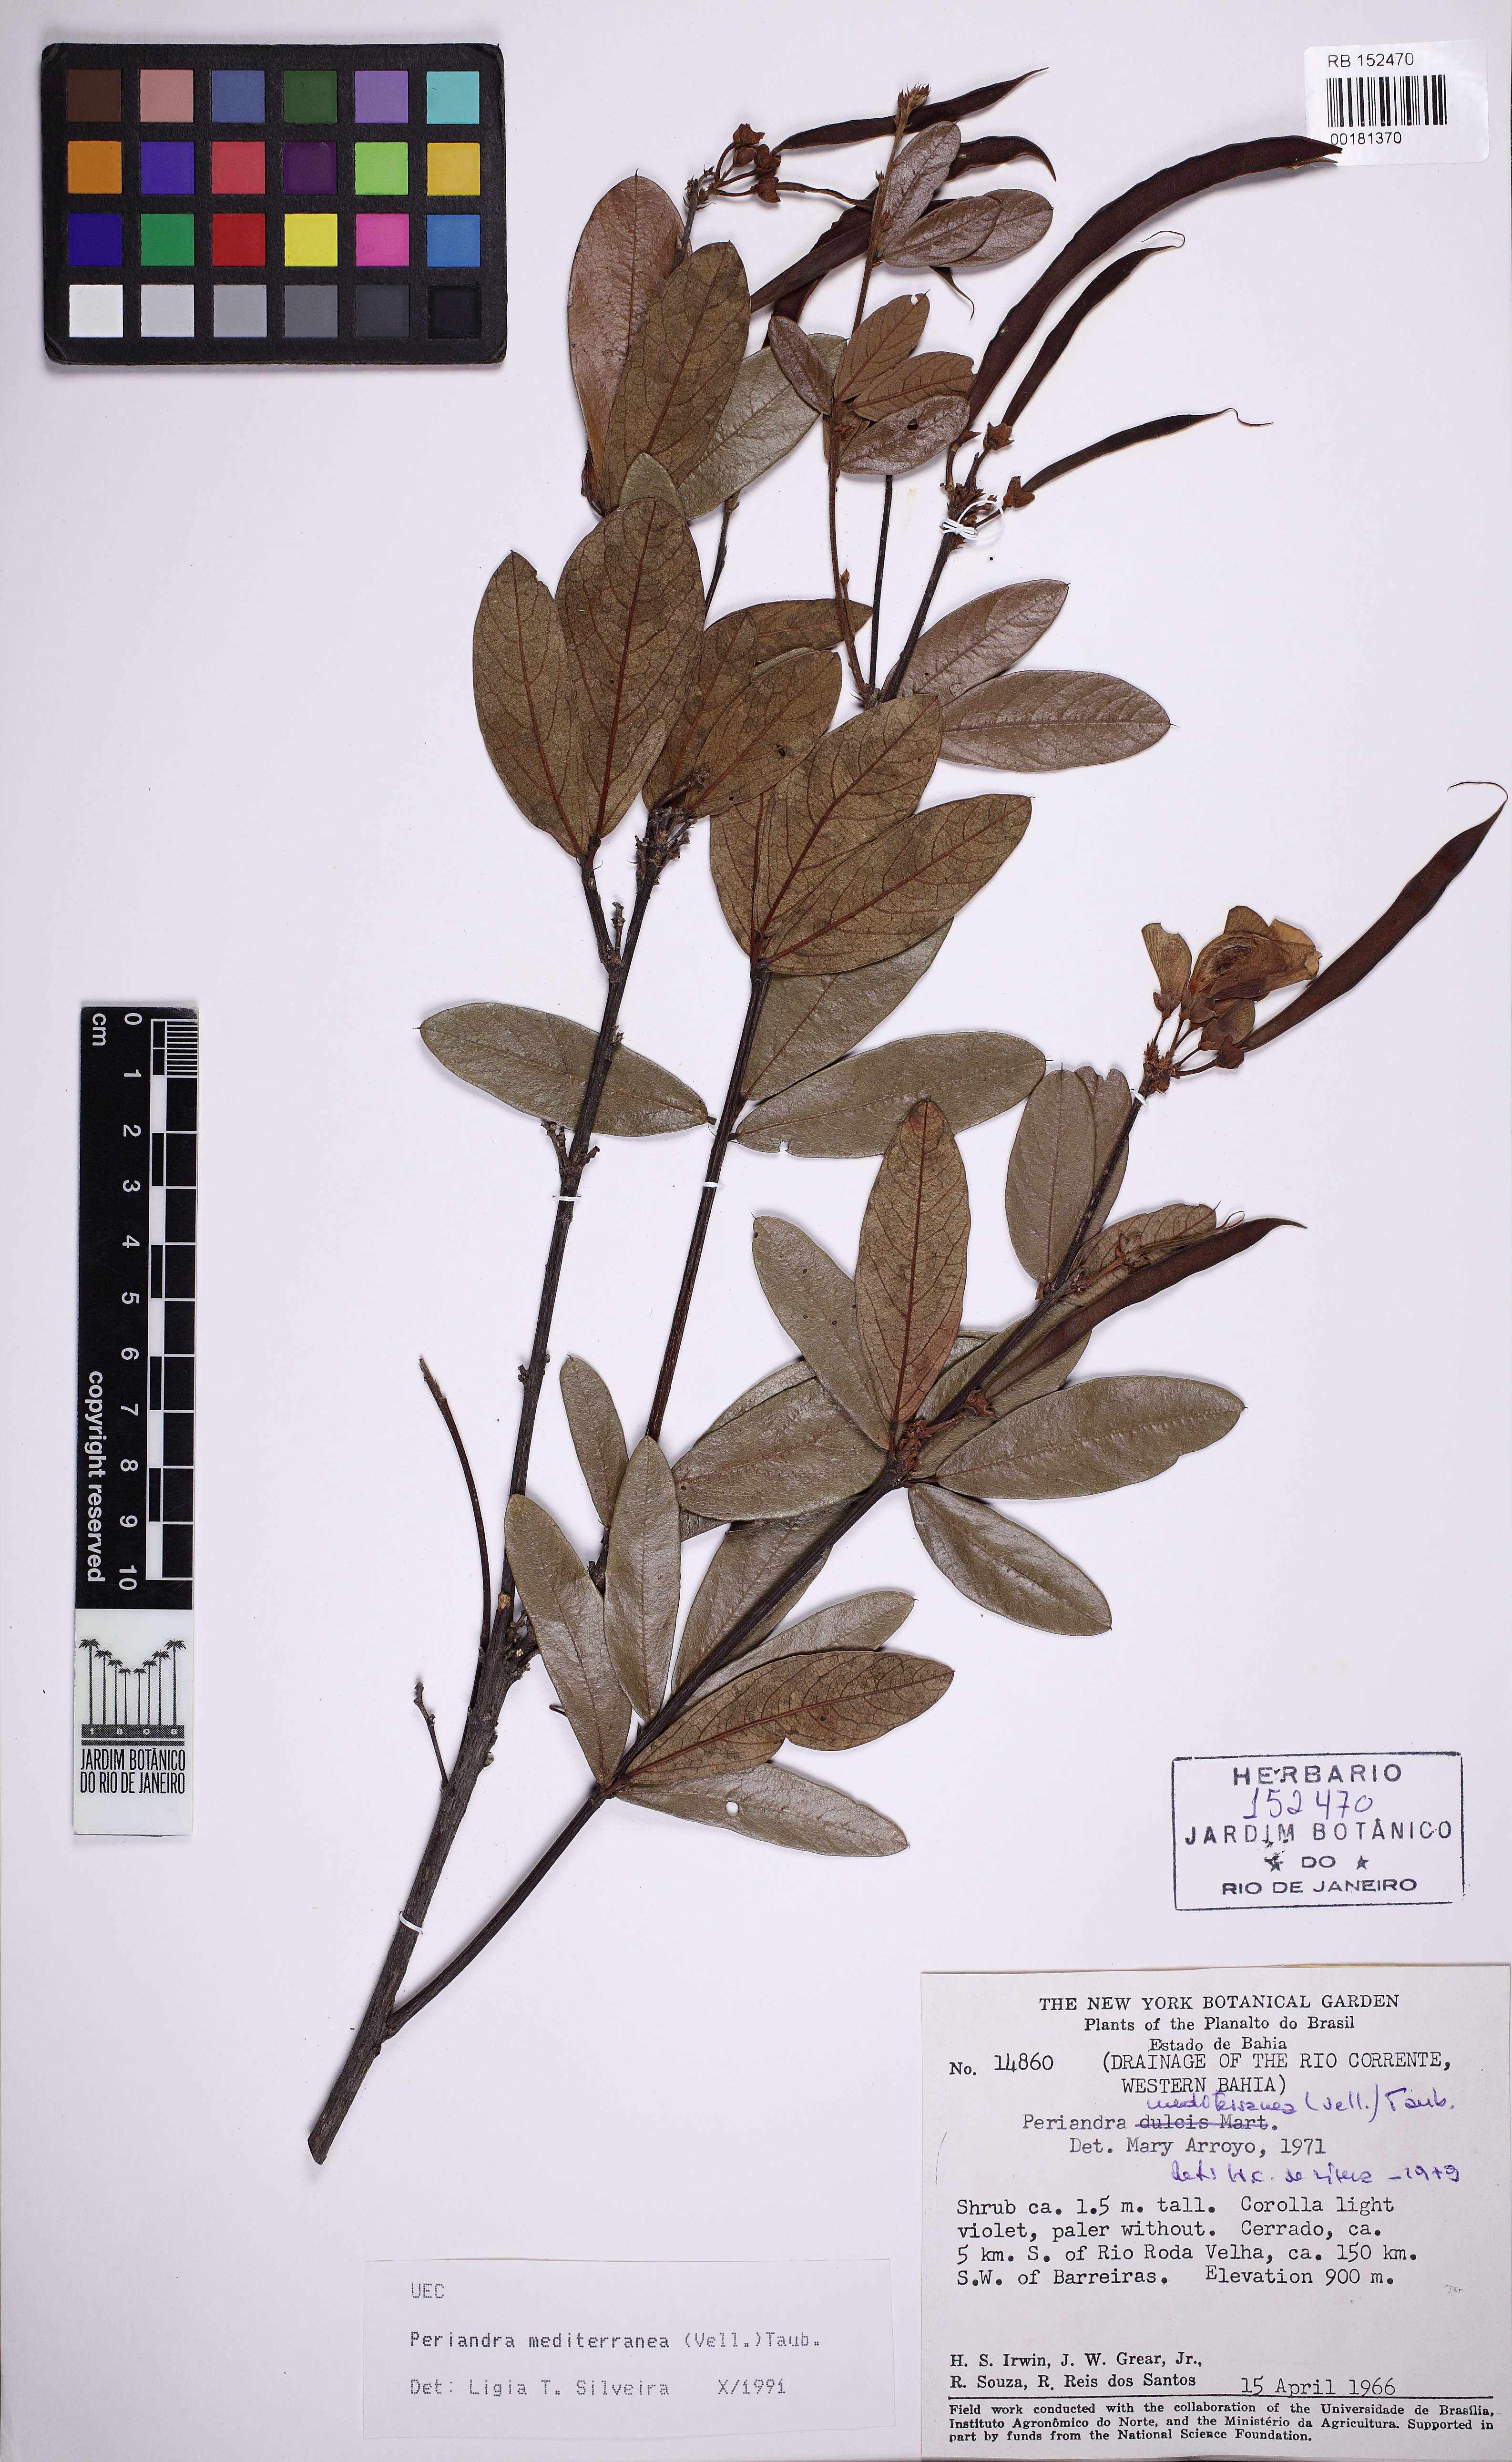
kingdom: Plantae
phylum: Tracheophyta
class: Magnoliopsida
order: Fabales
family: Fabaceae
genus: Periandra
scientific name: Periandra mediterranea
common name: Brazilian licorice
